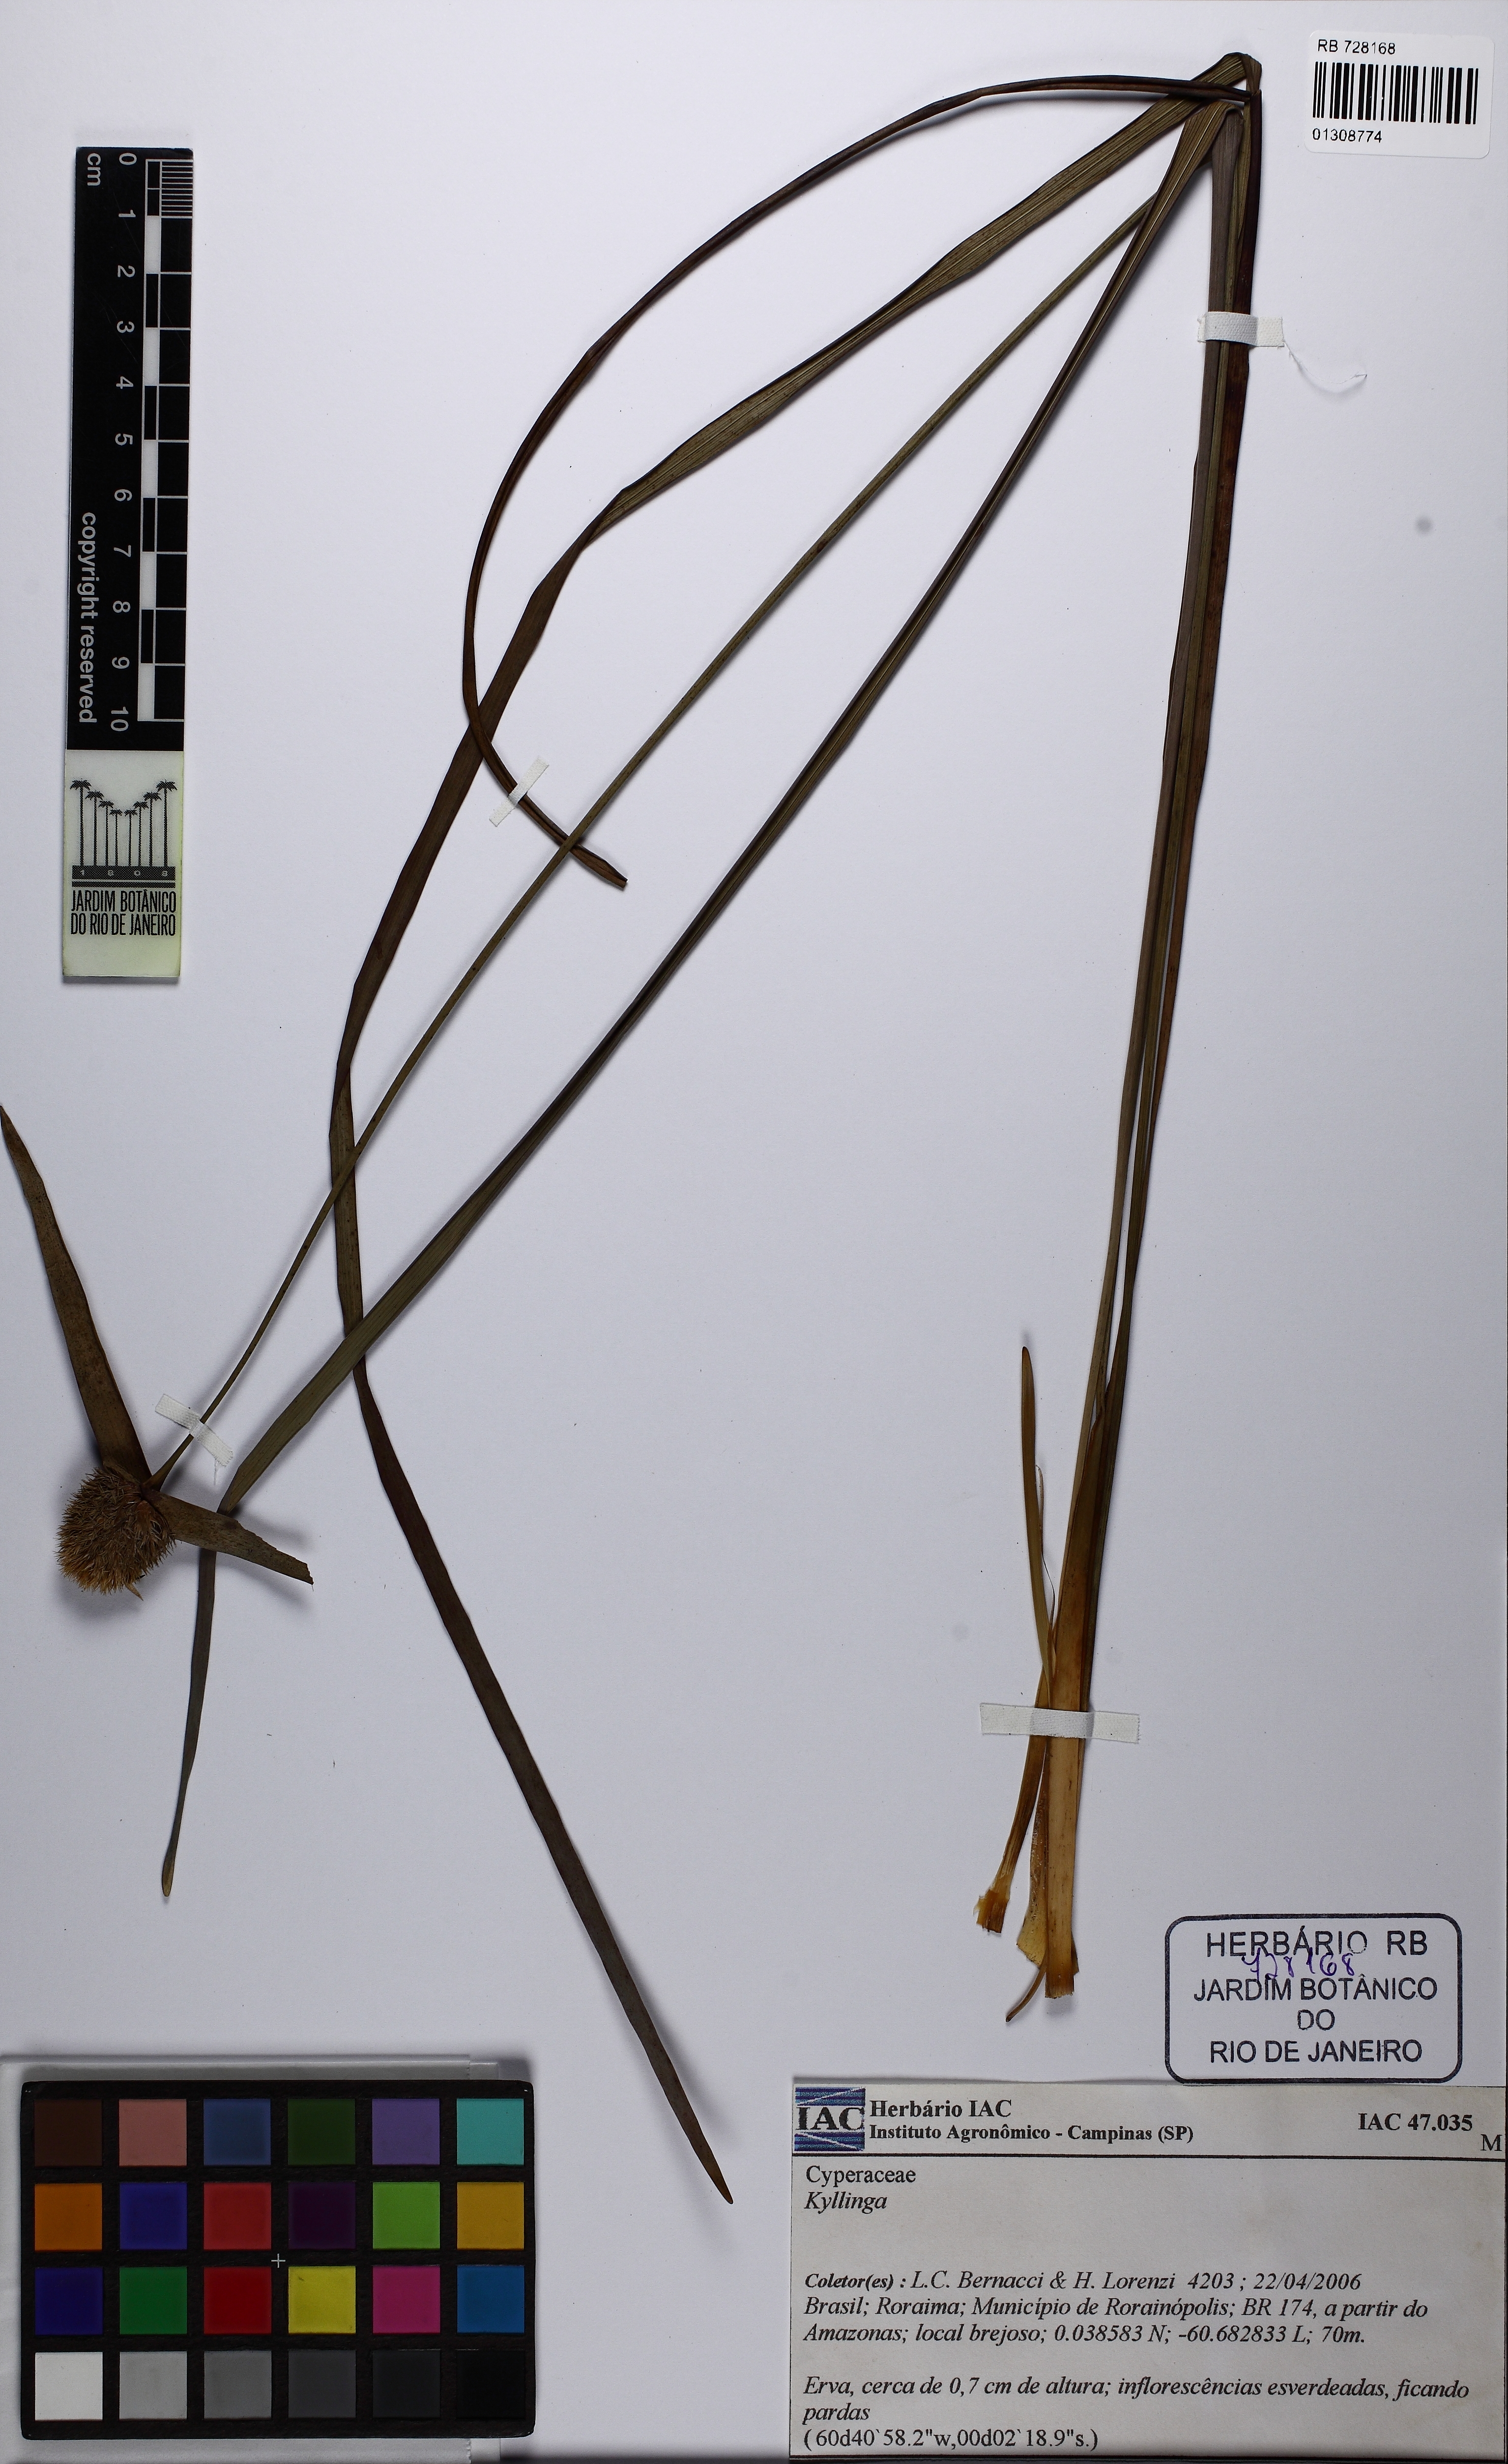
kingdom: Plantae
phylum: Tracheophyta
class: Liliopsida
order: Poales
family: Rapateaceae
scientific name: Rapateaceae
